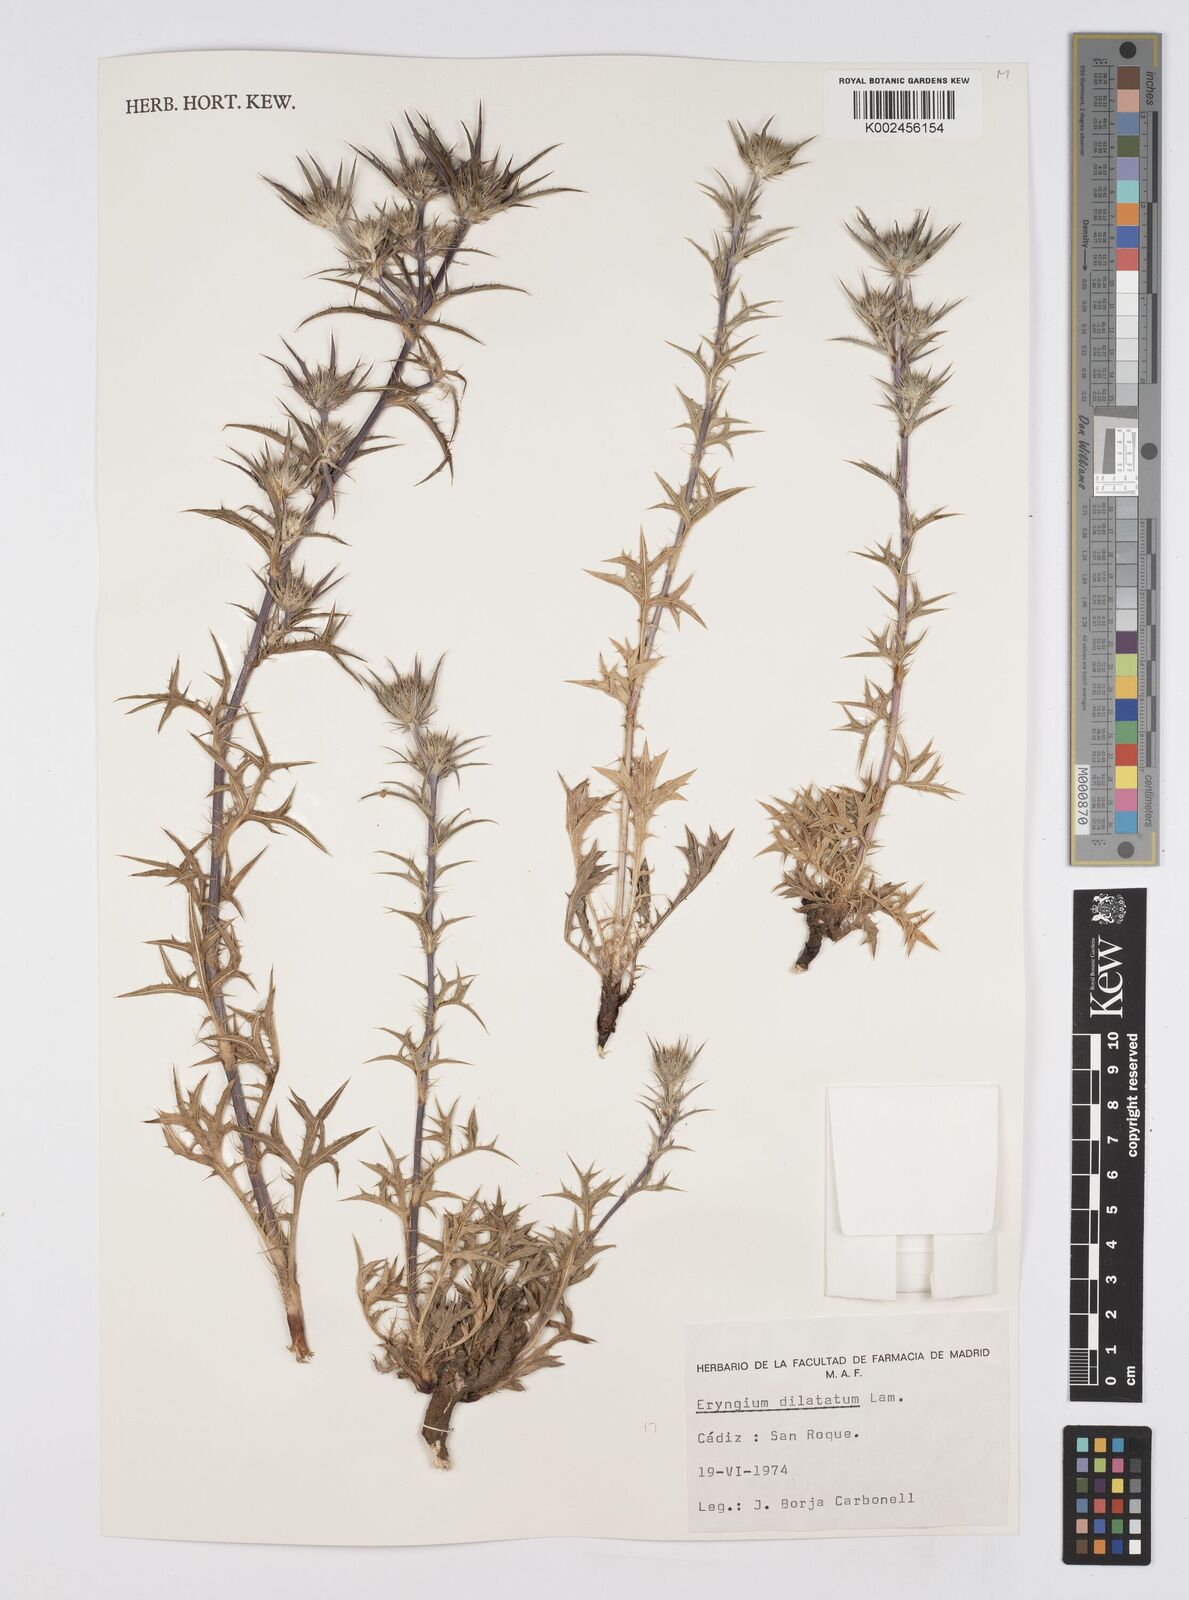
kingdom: Plantae
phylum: Tracheophyta
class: Magnoliopsida
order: Apiales
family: Apiaceae
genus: Eryngium
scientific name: Eryngium dilatatum
